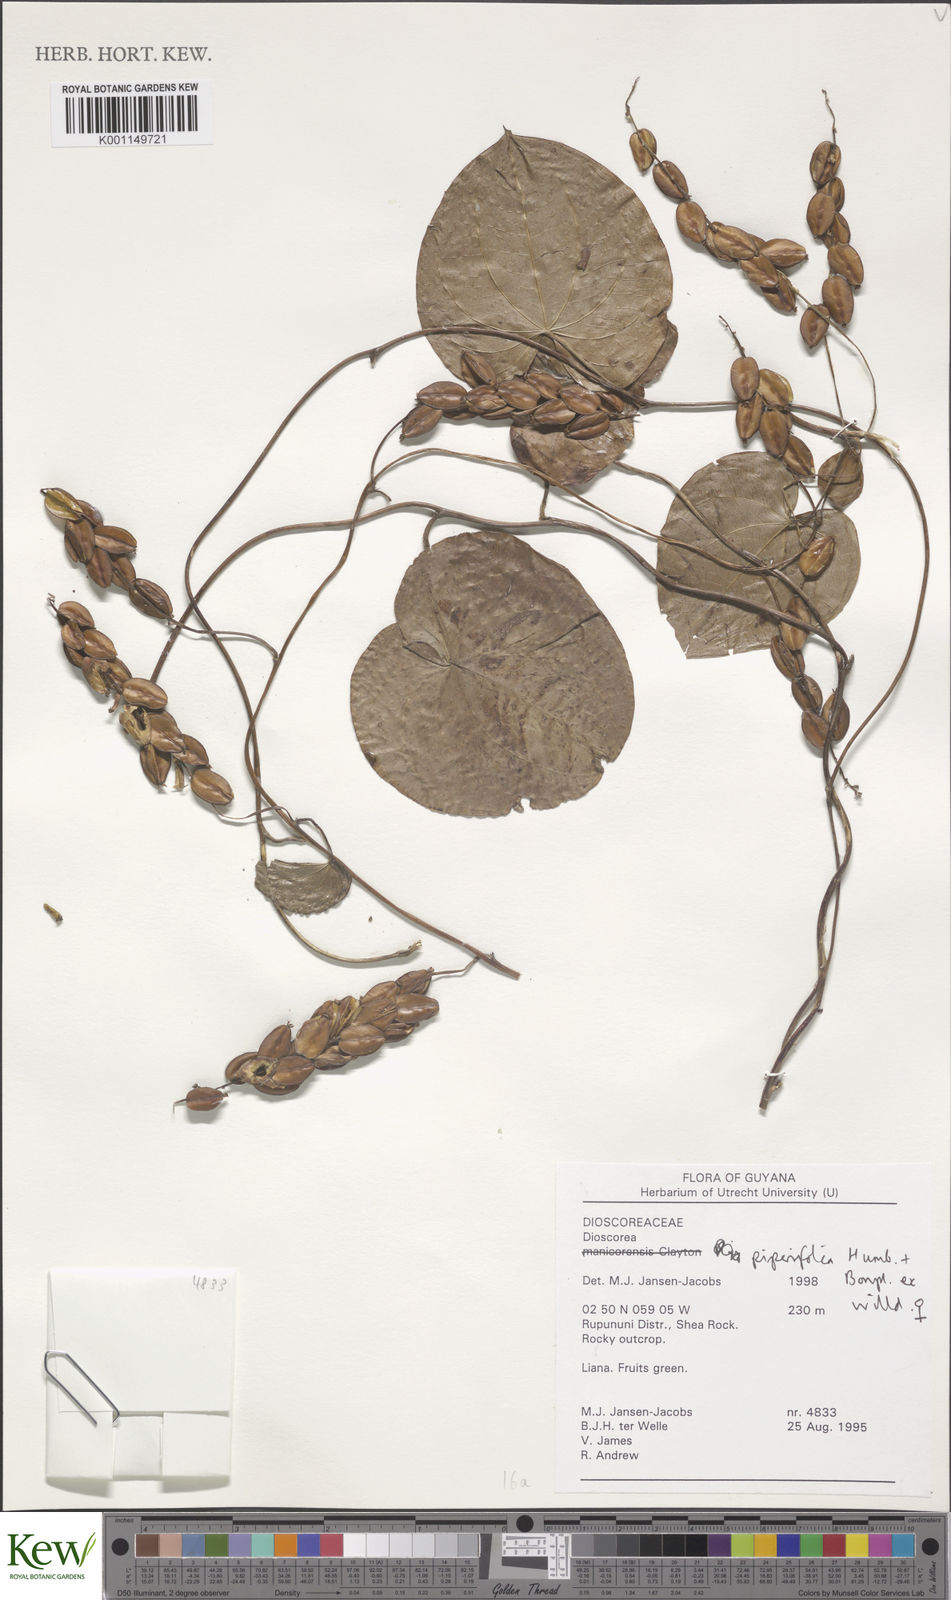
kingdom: Plantae
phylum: Tracheophyta
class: Liliopsida
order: Dioscoreales
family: Dioscoreaceae
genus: Dioscorea
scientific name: Dioscorea piperifolia
